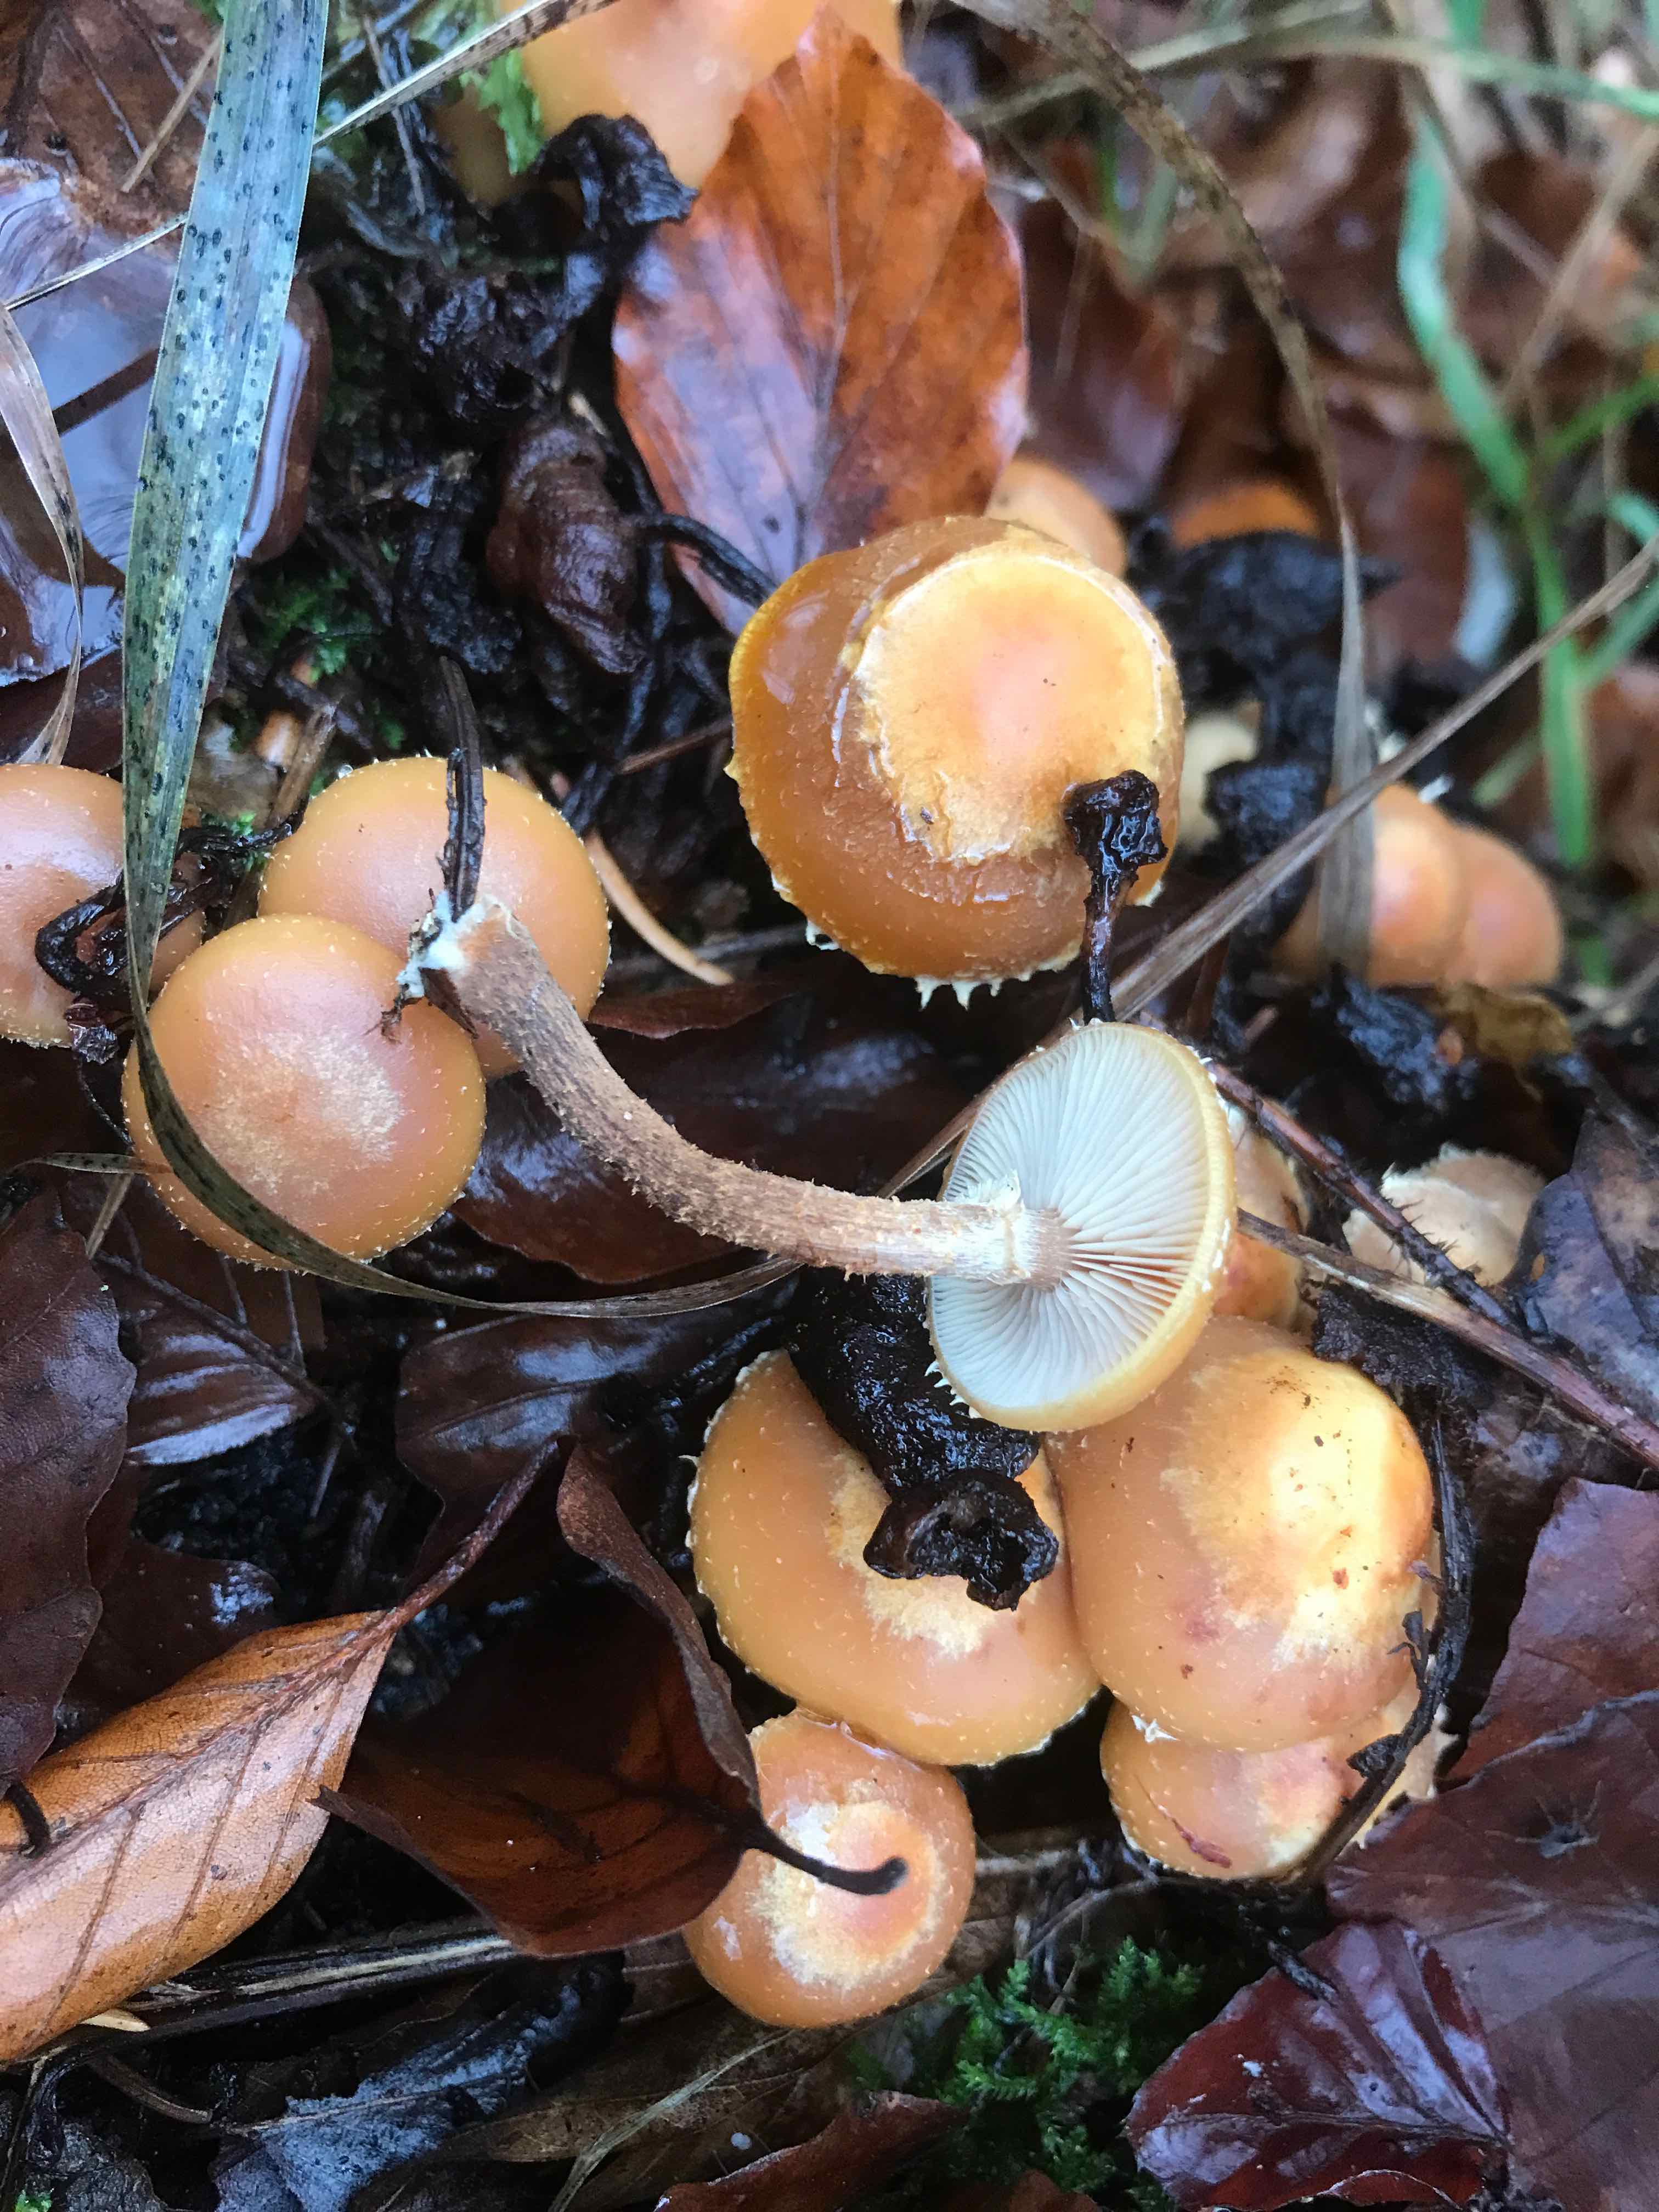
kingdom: Fungi
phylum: Basidiomycota
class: Agaricomycetes
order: Agaricales
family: Strophariaceae
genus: Kuehneromyces
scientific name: Kuehneromyces mutabilis
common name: foranderlig skælhat
